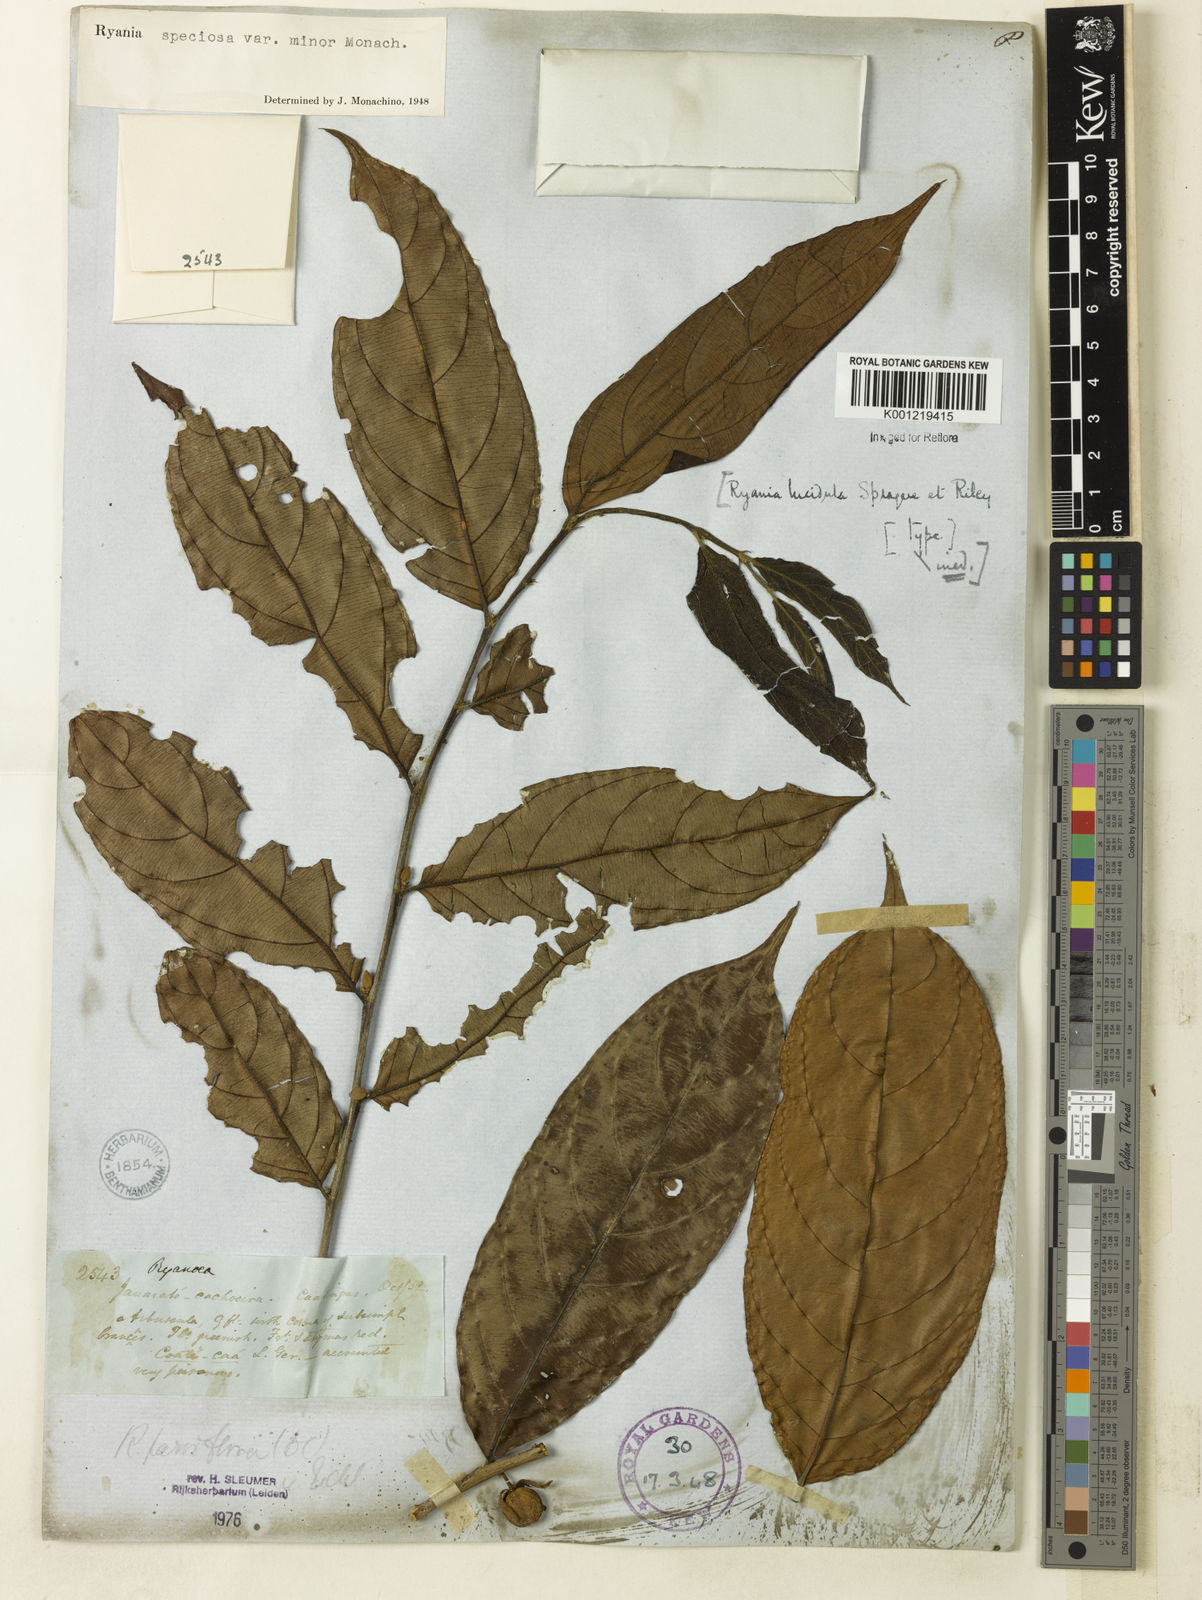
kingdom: Plantae
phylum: Tracheophyta
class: Magnoliopsida
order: Malpighiales
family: Salicaceae
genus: Ryania
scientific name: Ryania speciosa
